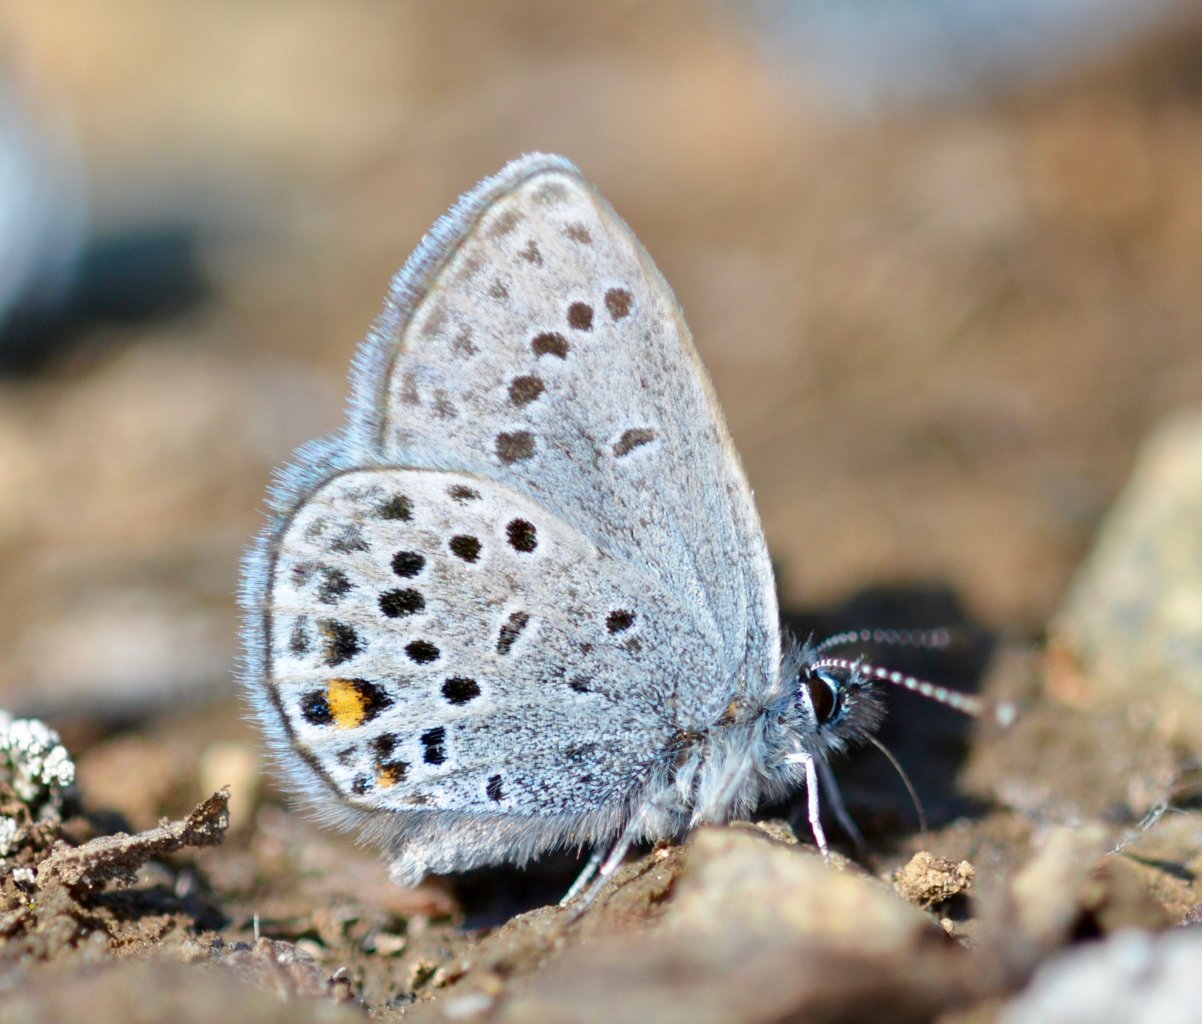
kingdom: Animalia
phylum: Arthropoda
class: Insecta
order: Lepidoptera
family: Lycaenidae
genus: Vacciniina
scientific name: Vacciniina optilete
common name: Cranberry Blue
